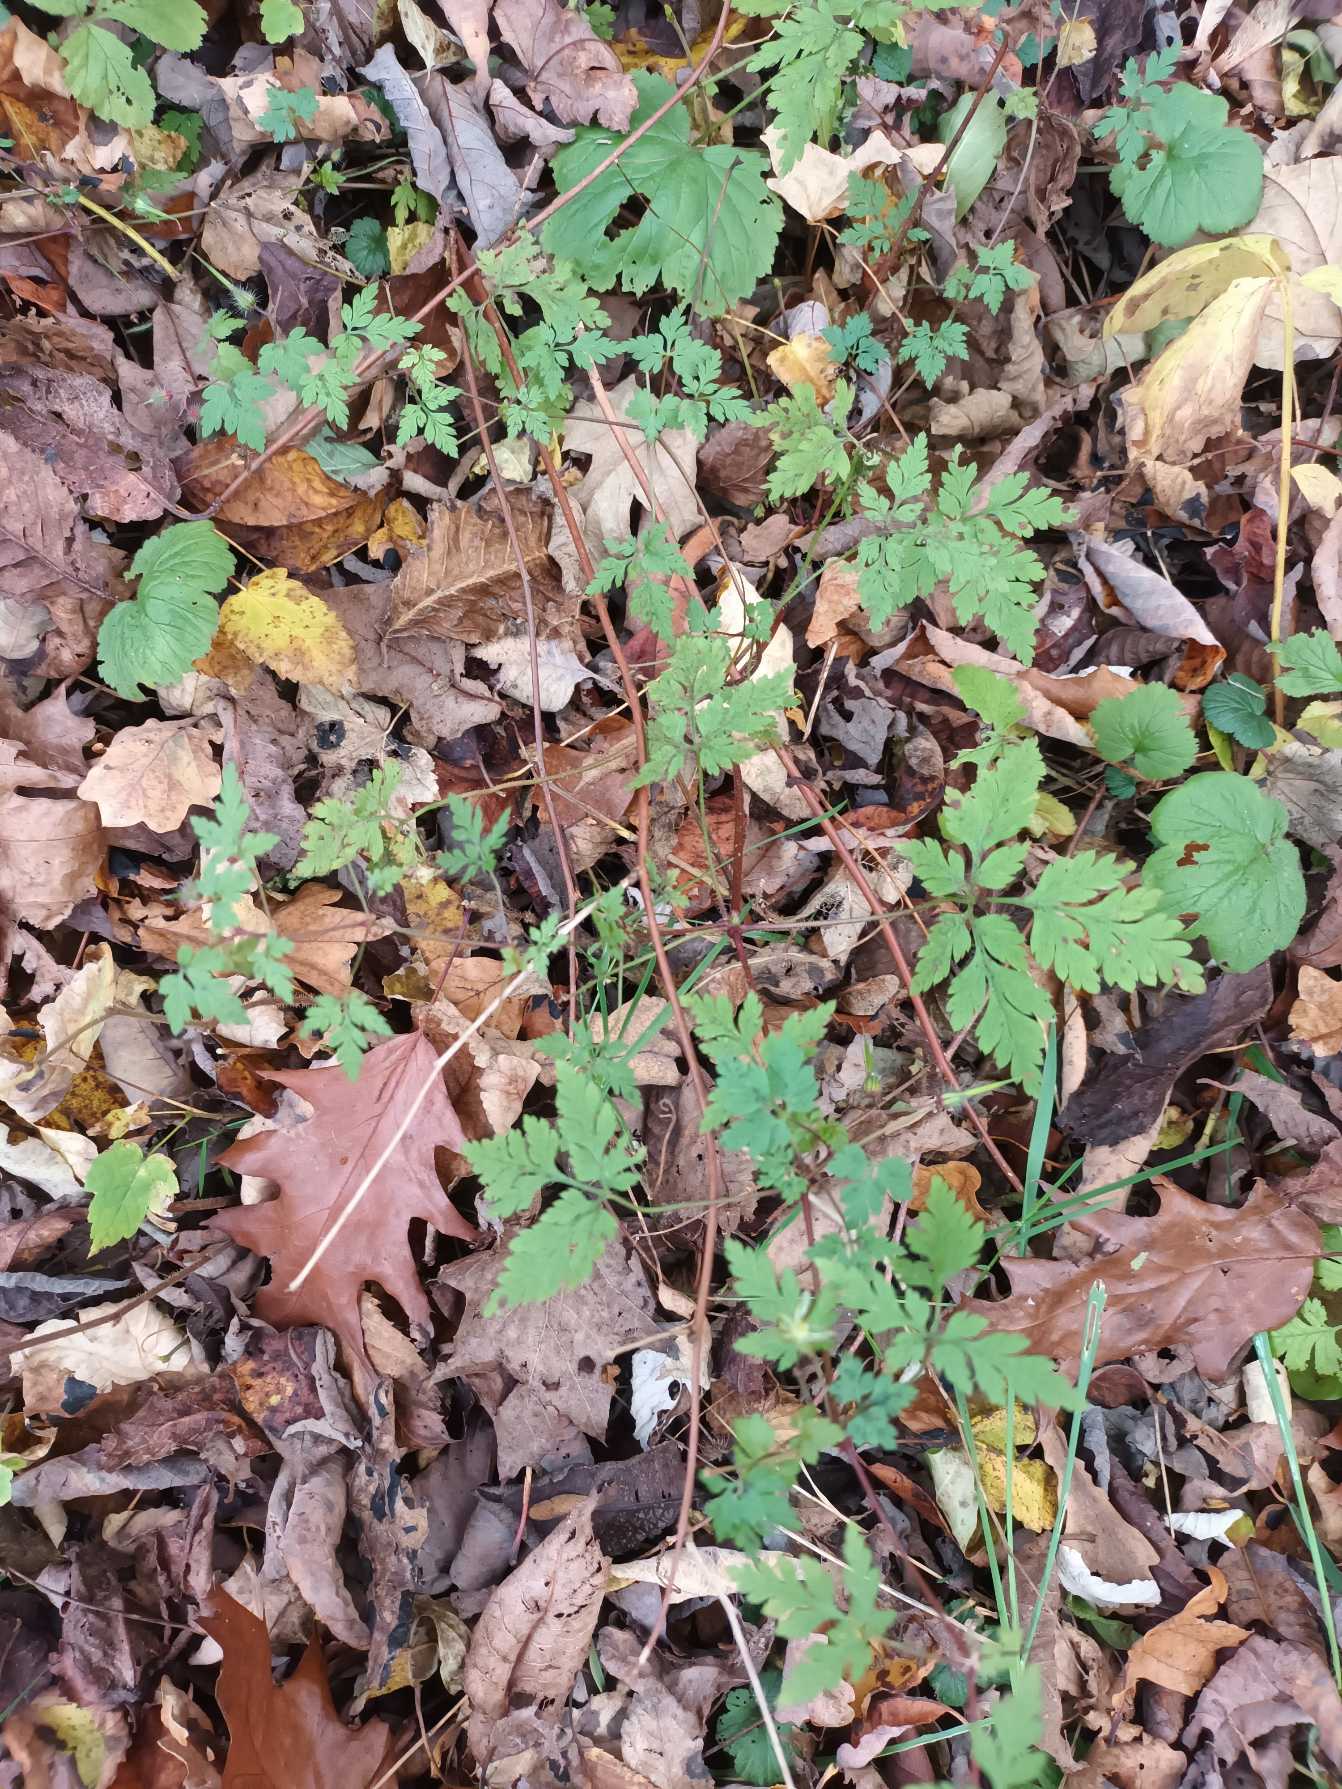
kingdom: Plantae
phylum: Tracheophyta
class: Magnoliopsida
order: Geraniales
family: Geraniaceae
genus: Geranium
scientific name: Geranium robertianum
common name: Stinkende storkenæb
